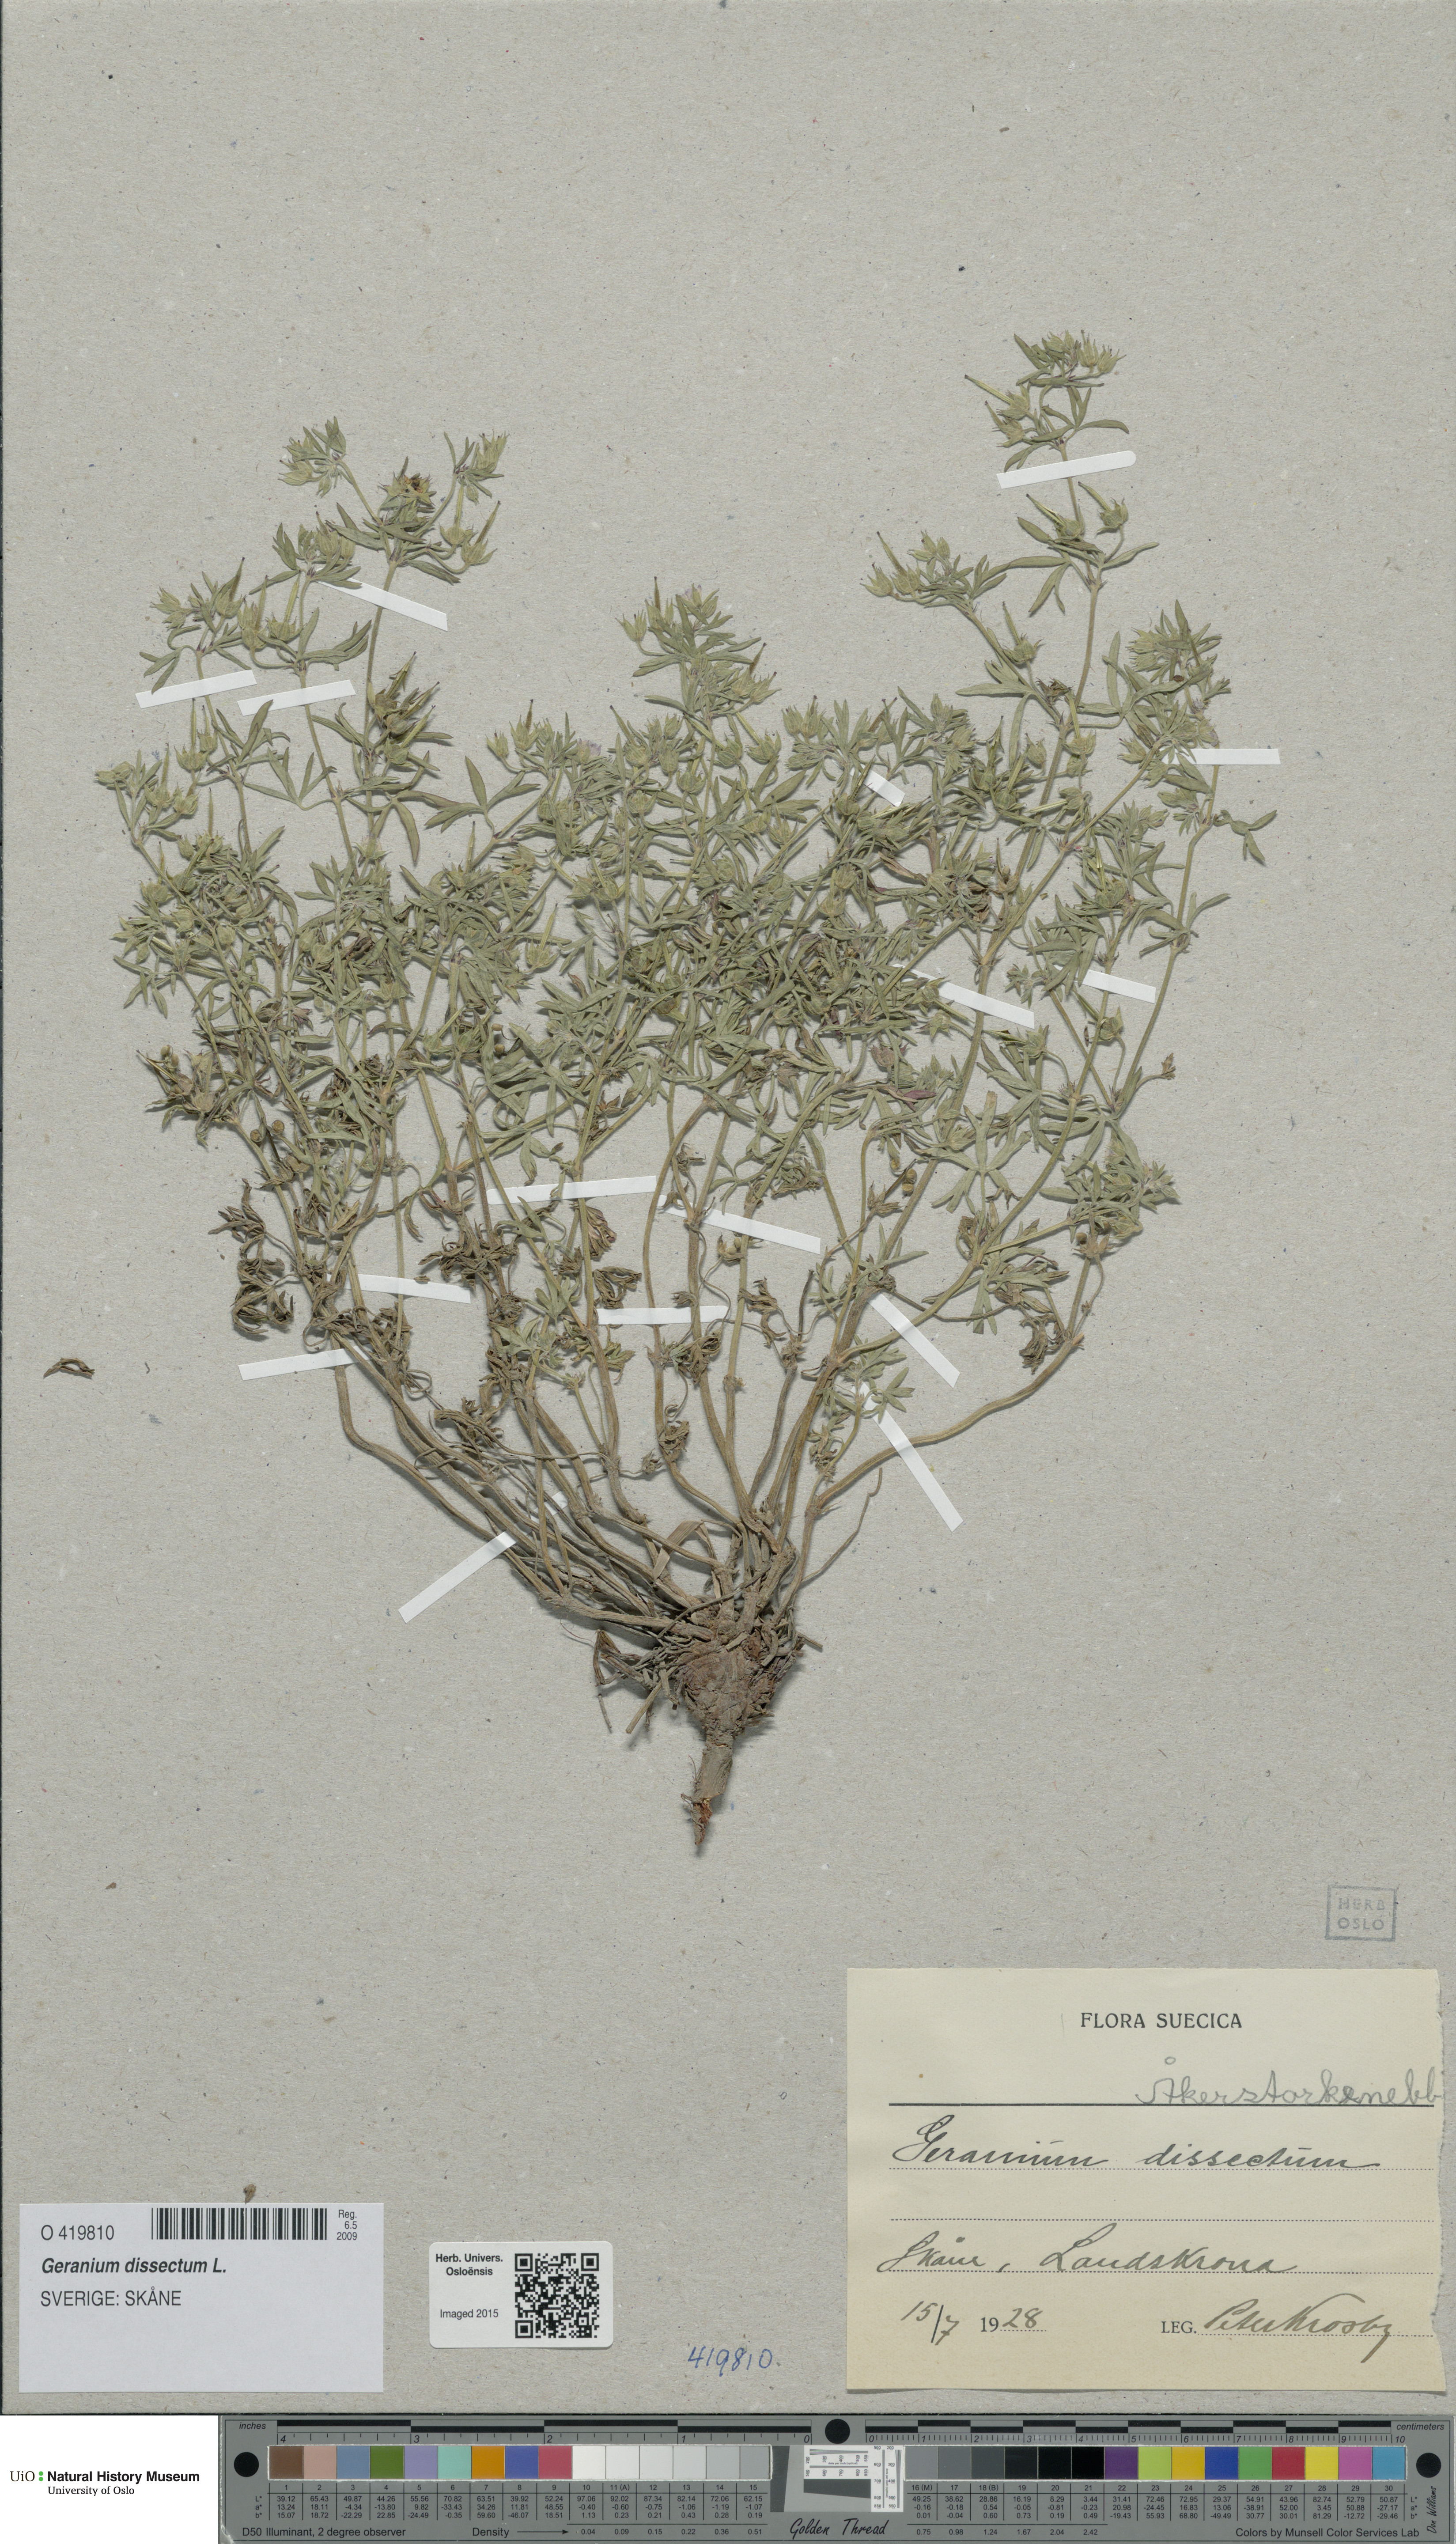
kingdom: Plantae
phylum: Tracheophyta
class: Magnoliopsida
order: Geraniales
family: Geraniaceae
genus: Geranium
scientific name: Geranium dissectum
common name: Cut-leaved crane's-bill
